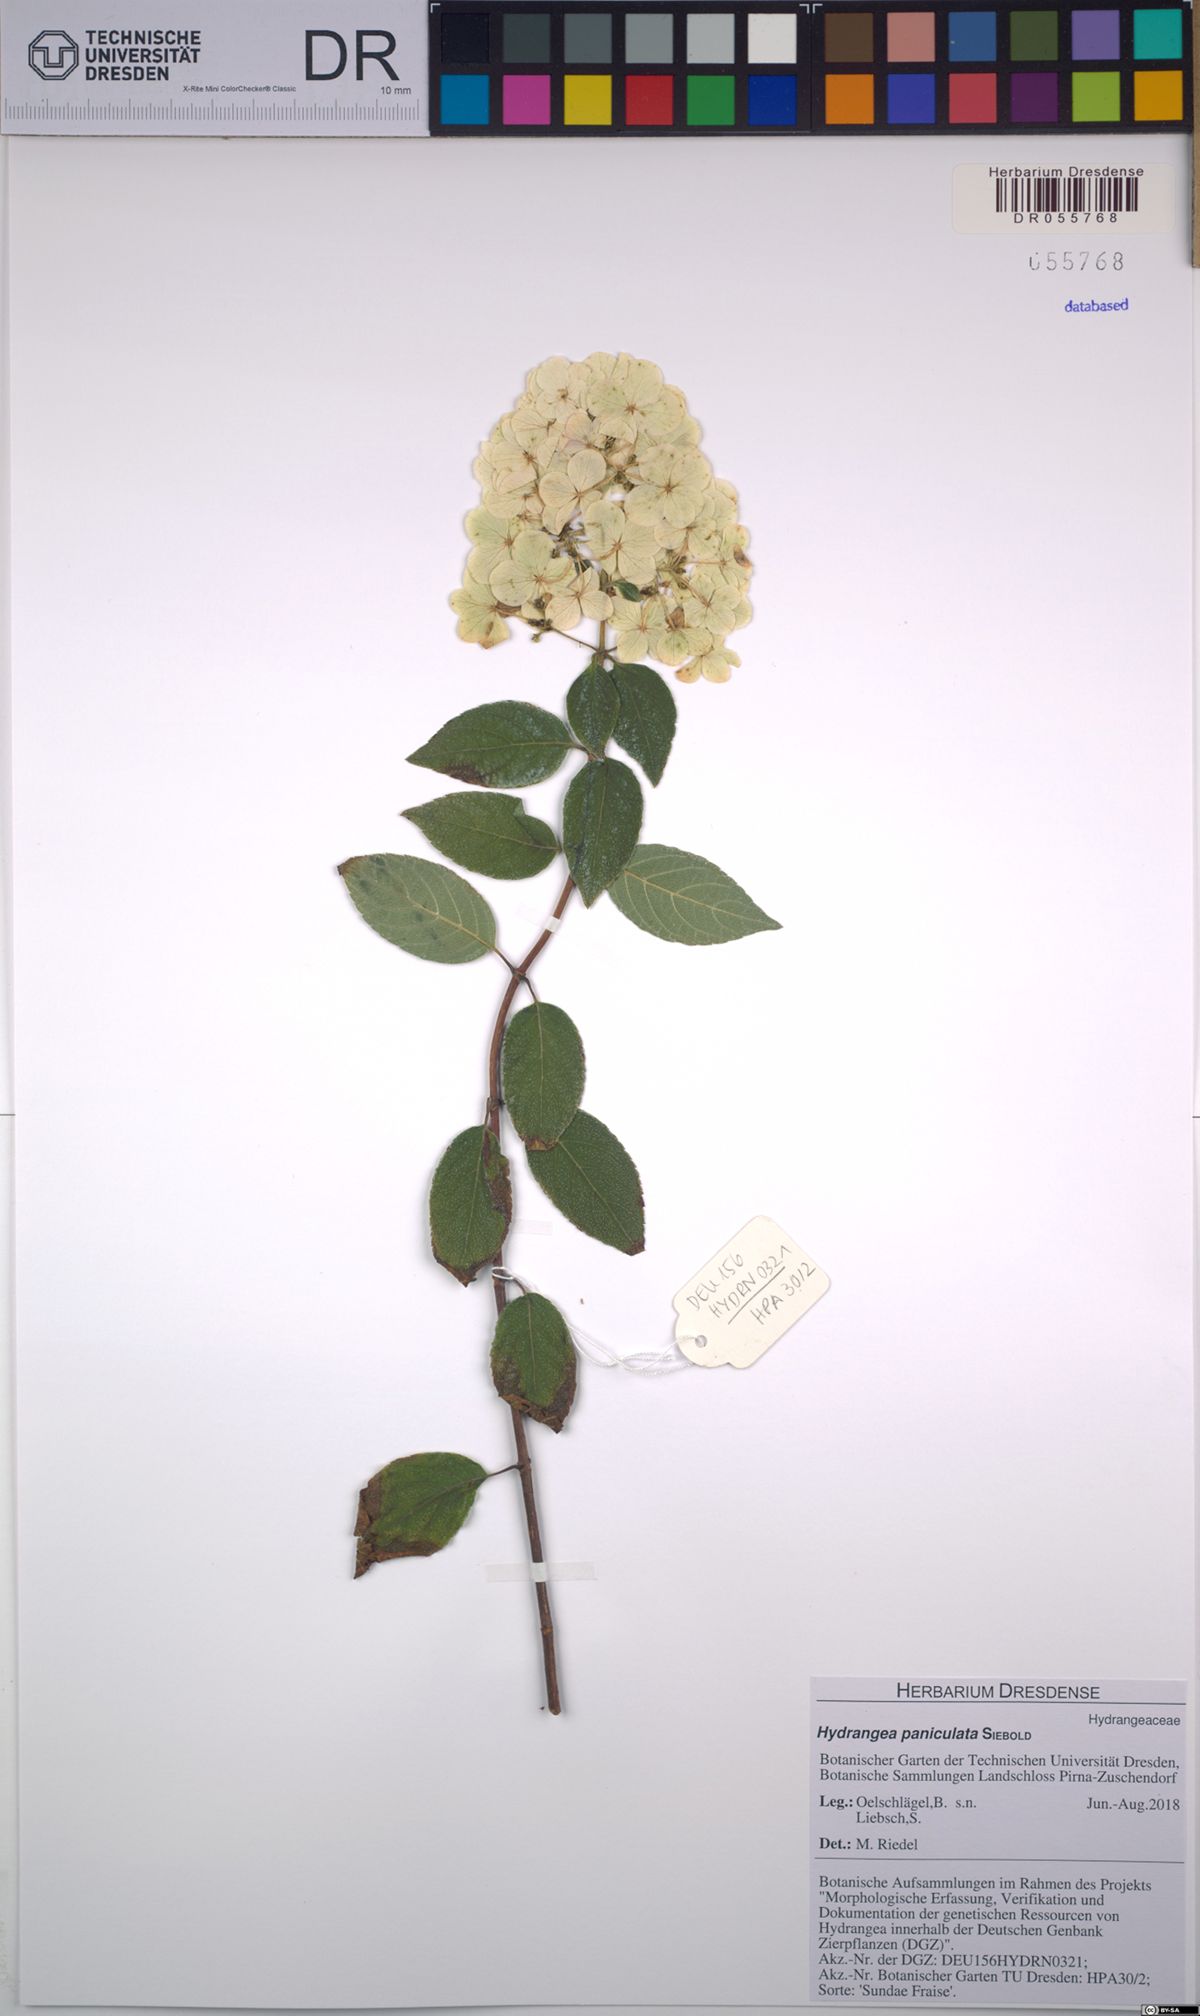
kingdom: Plantae
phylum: Tracheophyta
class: Magnoliopsida
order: Cornales
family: Hydrangeaceae
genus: Hydrangea
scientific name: Hydrangea paniculata
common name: Panicled hydrangea
